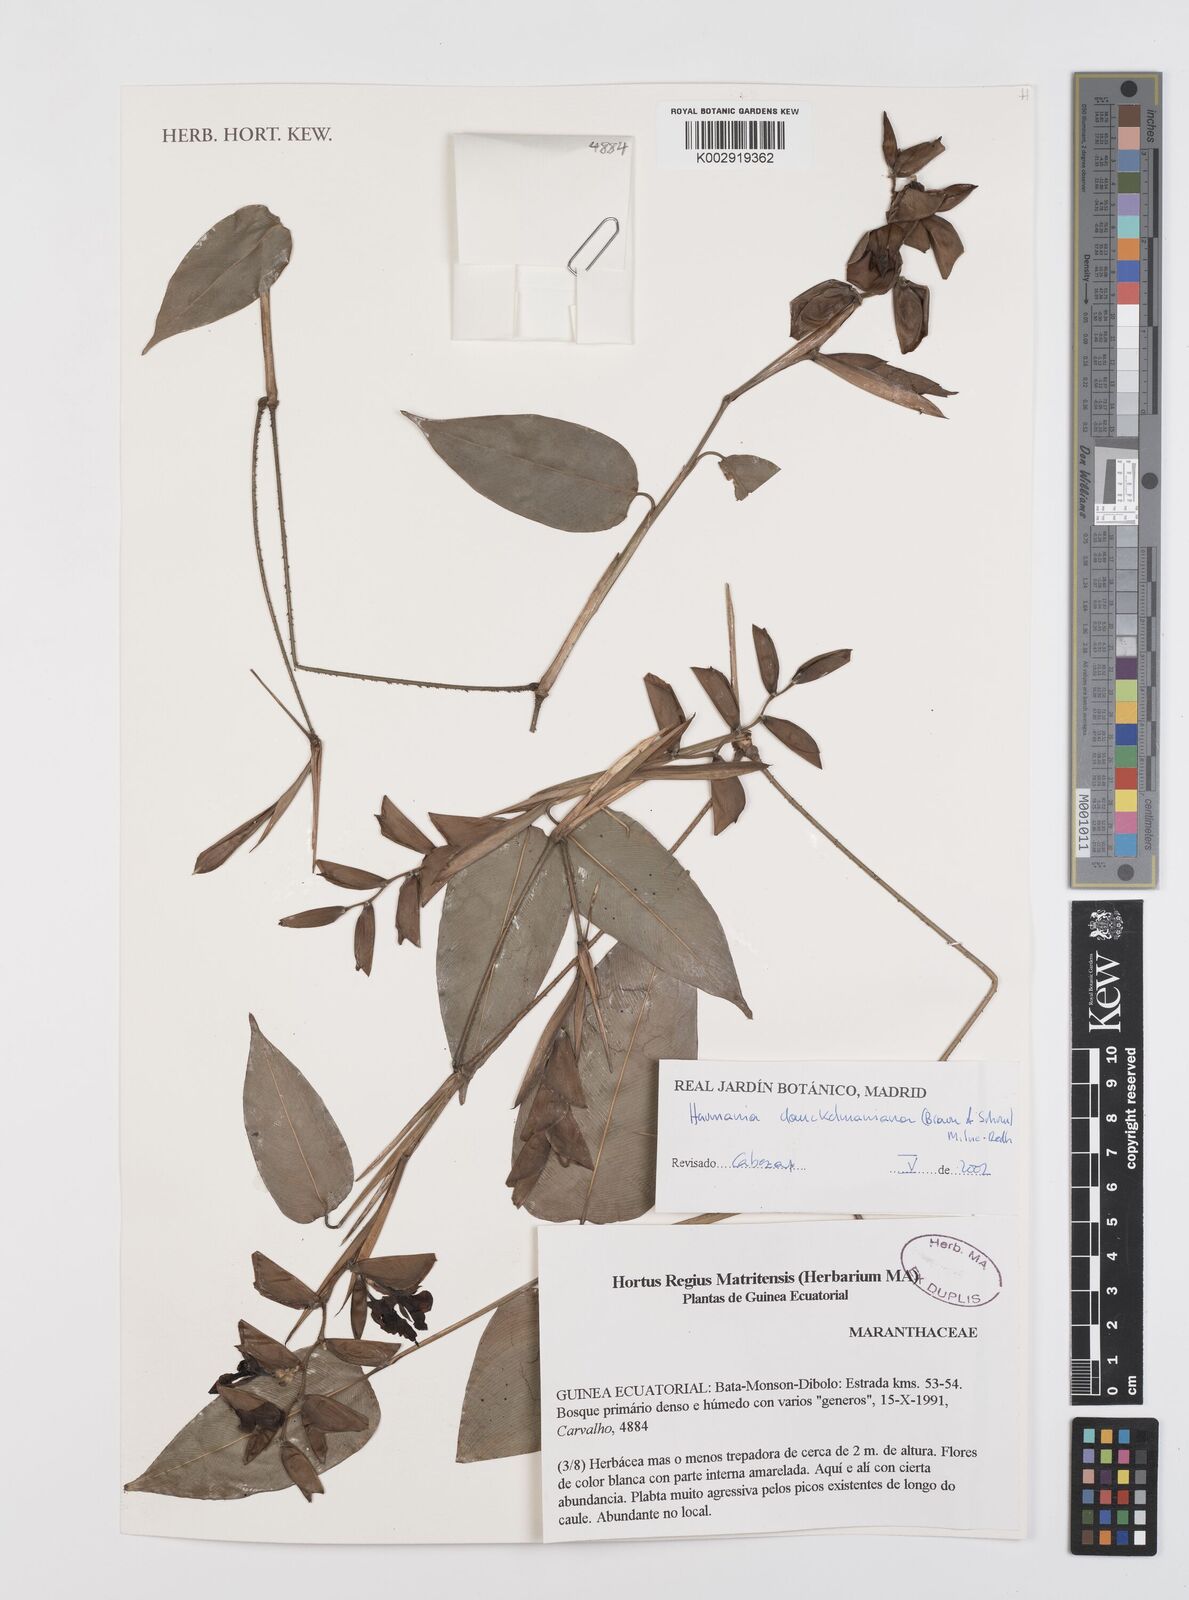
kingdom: Plantae
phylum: Tracheophyta
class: Liliopsida
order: Zingiberales
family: Marantaceae
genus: Haumania
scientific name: Haumania danckelmaniana
